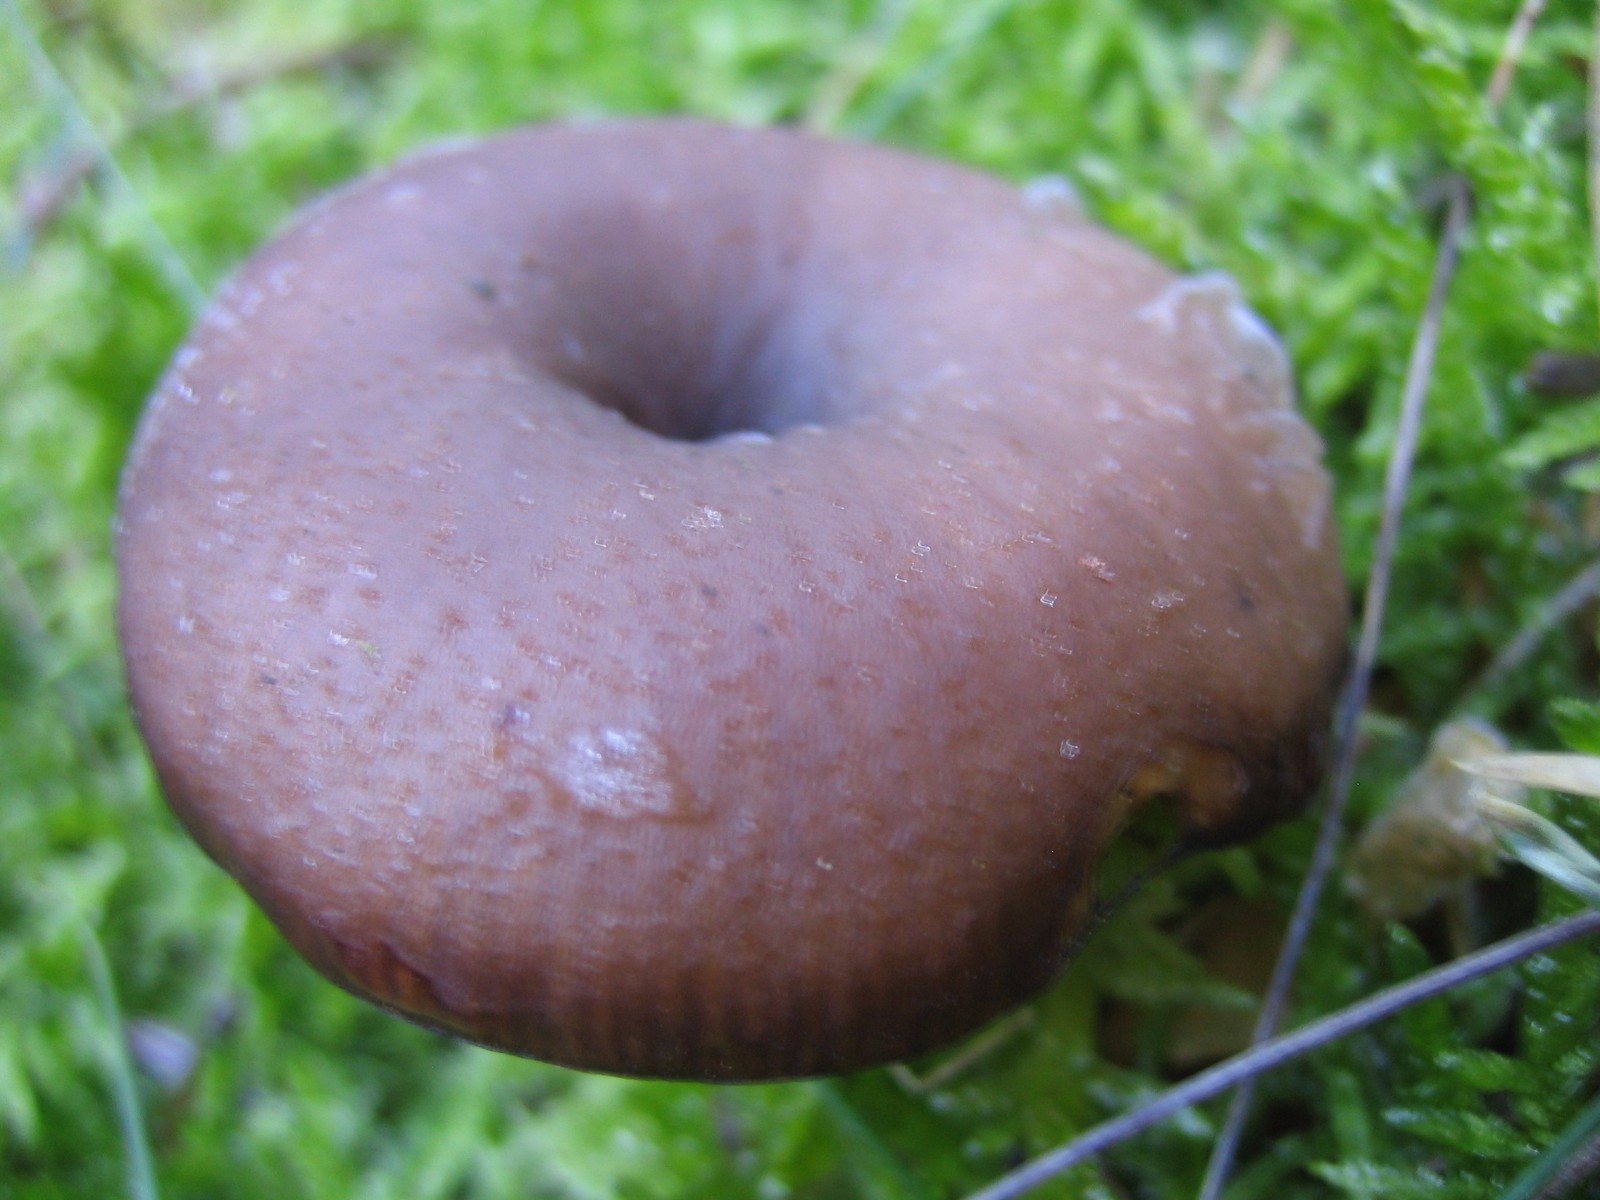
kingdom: Fungi
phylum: Basidiomycota
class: Agaricomycetes
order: Agaricales
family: Pseudoclitocybaceae
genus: Pseudoclitocybe
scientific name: Pseudoclitocybe cyathiformis
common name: almindelig bægertragthat
